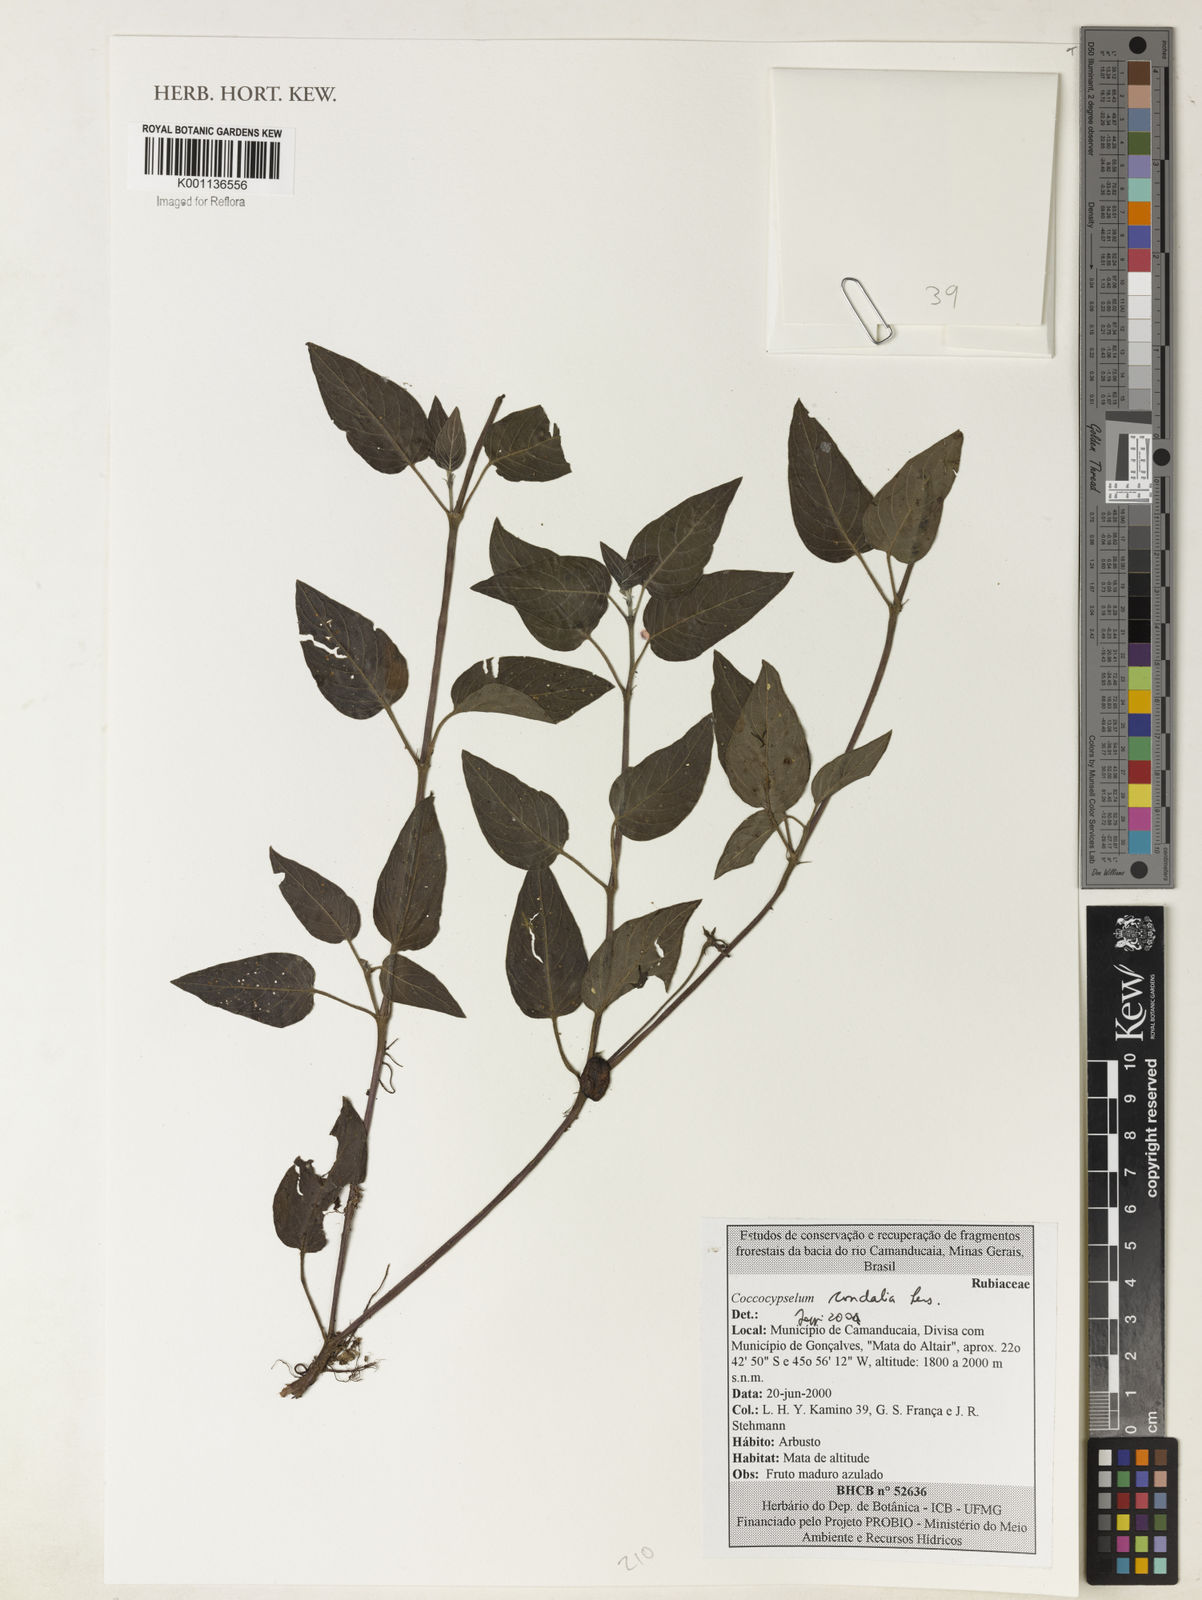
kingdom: Plantae
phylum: Tracheophyta
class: Magnoliopsida
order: Gentianales
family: Rubiaceae
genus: Coccocypselum
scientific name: Coccocypselum condalia
